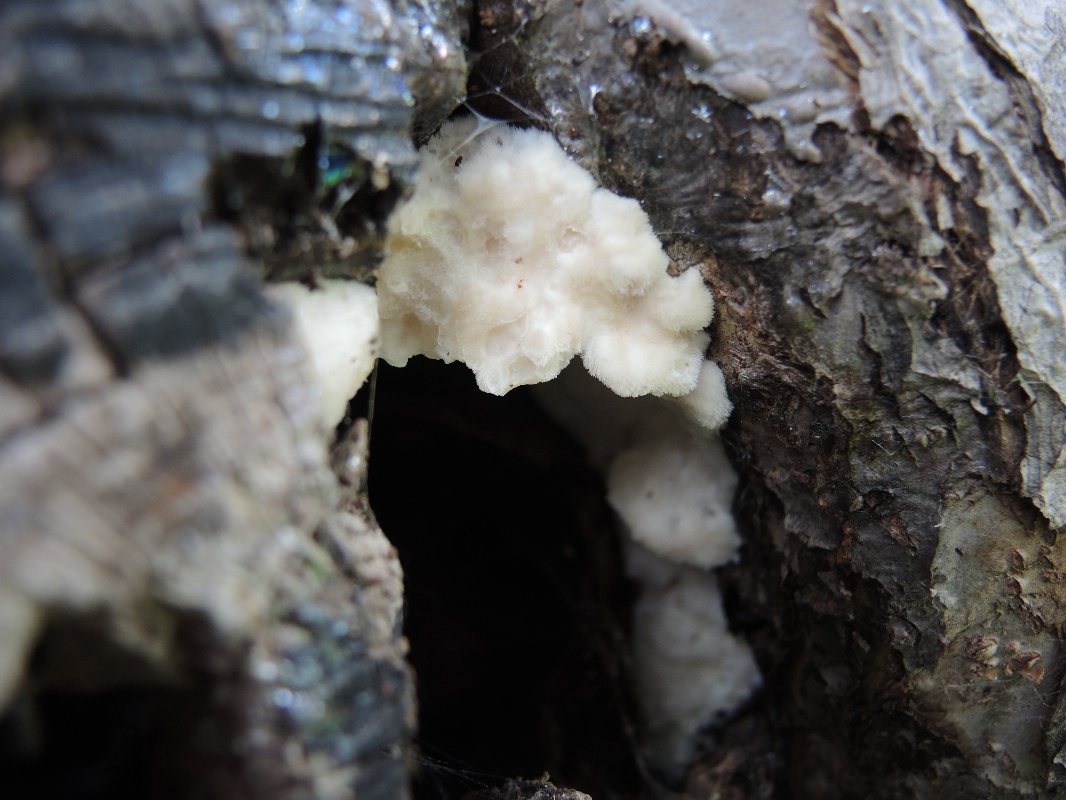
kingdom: Fungi
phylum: Basidiomycota
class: Agaricomycetes
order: Polyporales
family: Meruliaceae
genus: Pappia
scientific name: Pappia fissilis
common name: sej fedtporesvamp
